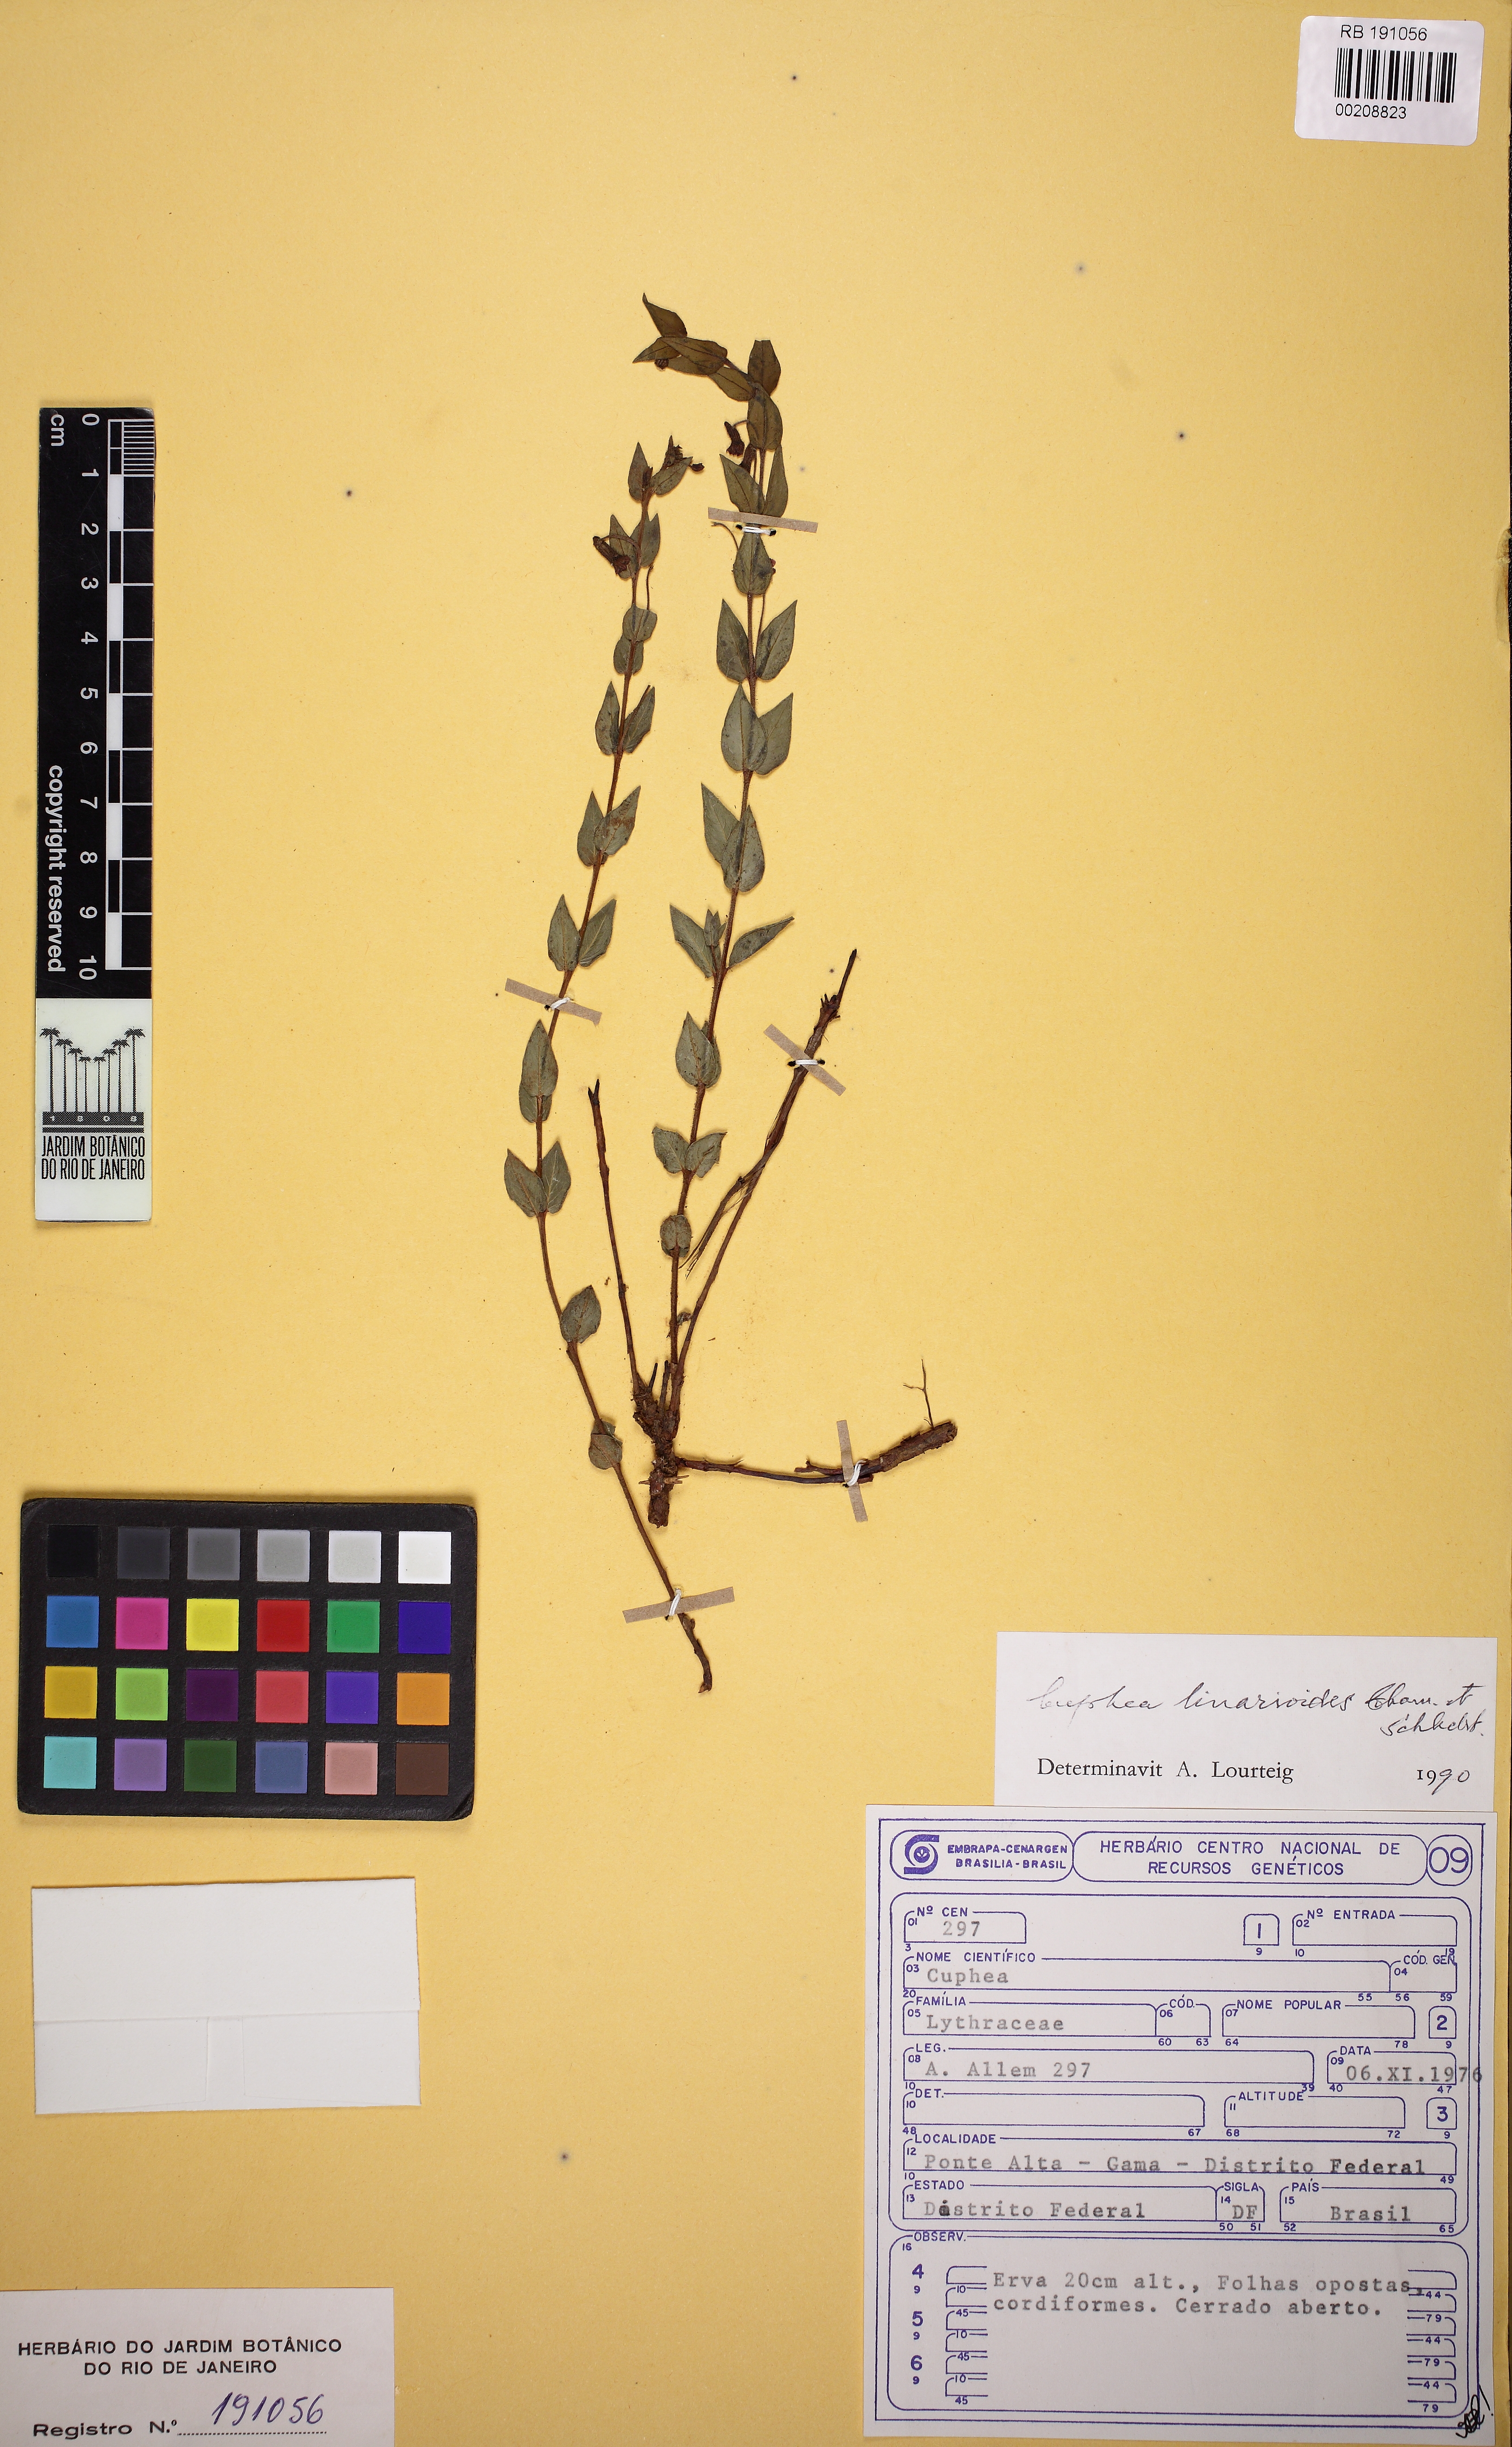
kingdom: Plantae
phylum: Tracheophyta
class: Magnoliopsida
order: Myrtales
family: Lythraceae
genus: Cuphea
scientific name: Cuphea linarioides
